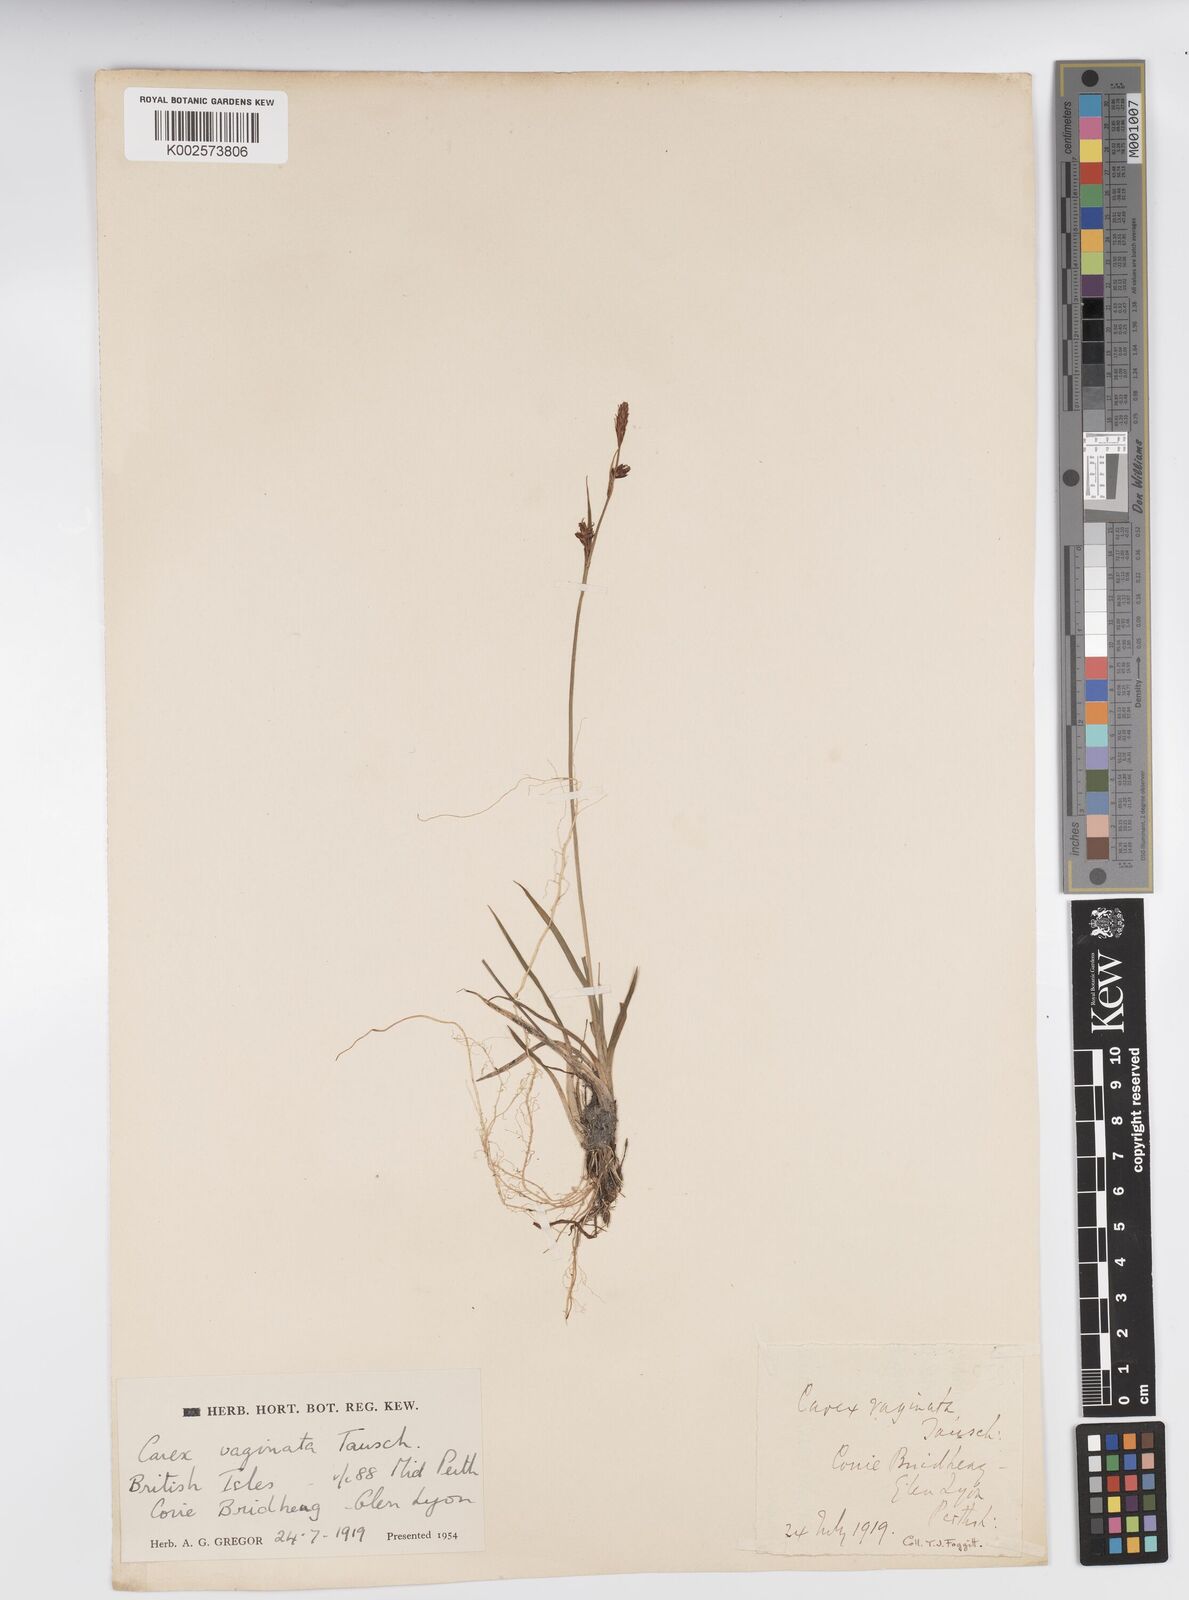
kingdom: Plantae
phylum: Tracheophyta
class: Liliopsida
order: Poales
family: Cyperaceae
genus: Carex
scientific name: Carex vaginata
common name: Sheathed sedge
